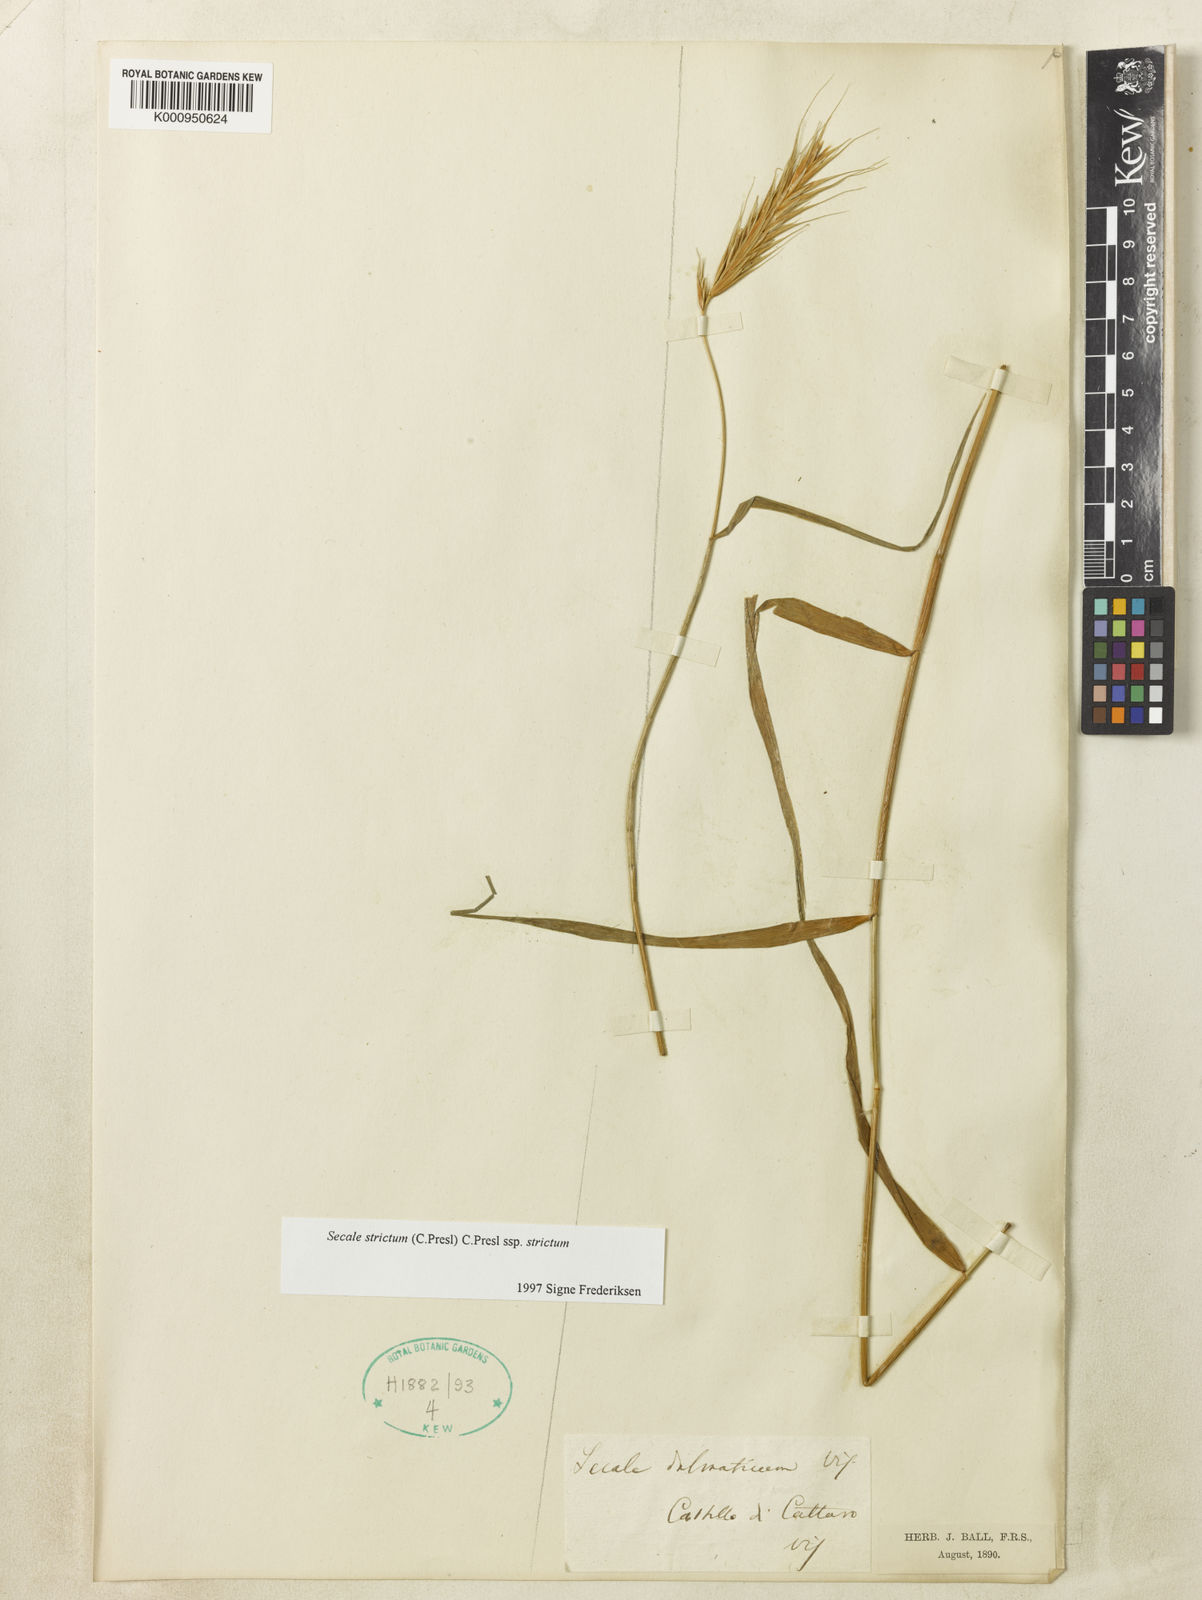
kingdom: Plantae
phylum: Tracheophyta
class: Liliopsida
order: Poales
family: Poaceae
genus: Secale
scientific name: Secale strictum
